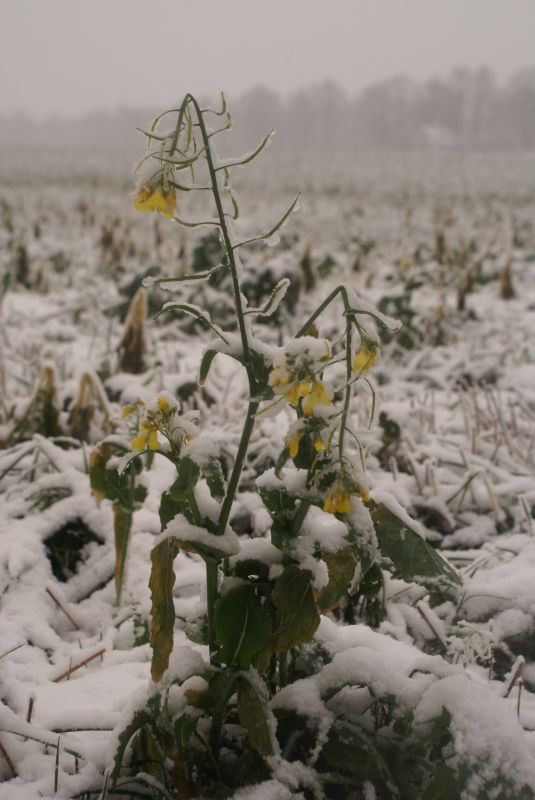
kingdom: Plantae
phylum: Tracheophyta
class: Magnoliopsida
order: Brassicales
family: Brassicaceae
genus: Barbarea
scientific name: Barbarea vulgaris
